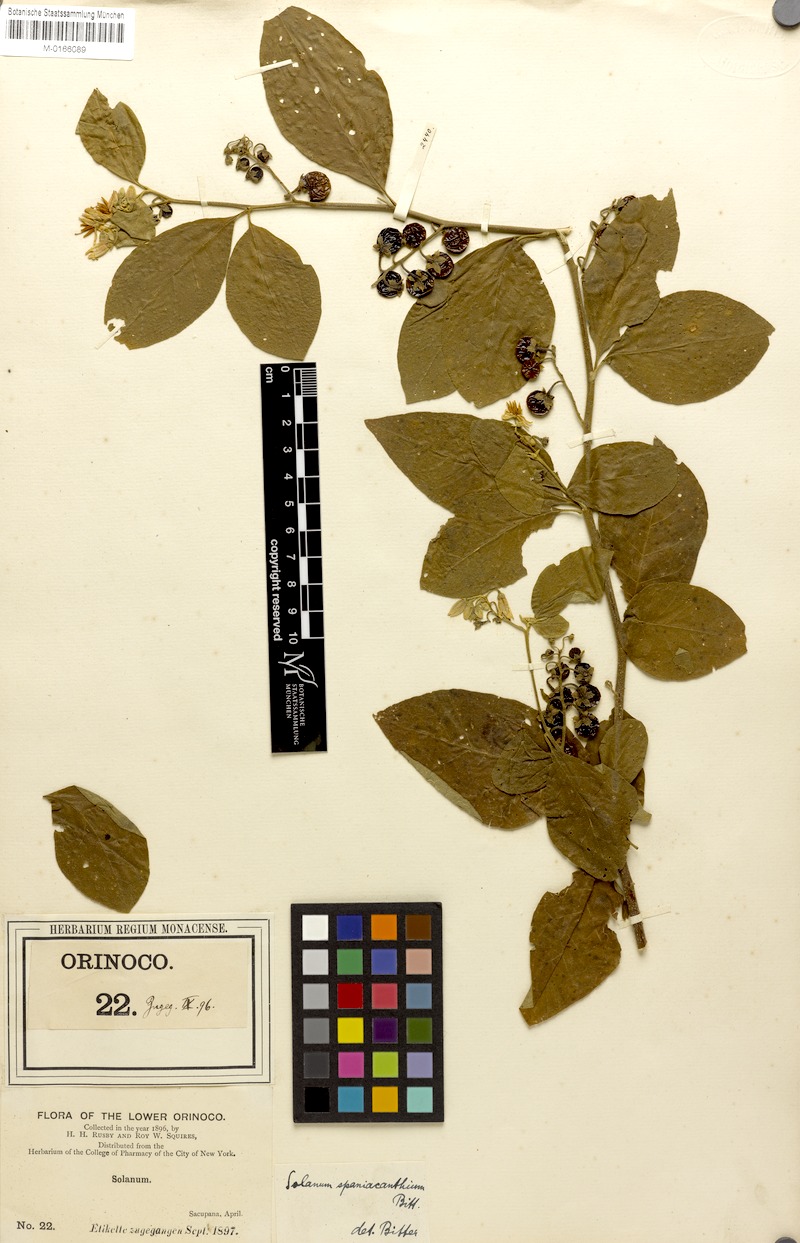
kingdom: Plantae
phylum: Tracheophyta
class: Magnoliopsida
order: Solanales
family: Solanaceae
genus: Solanum
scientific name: Solanum monachophyllum
